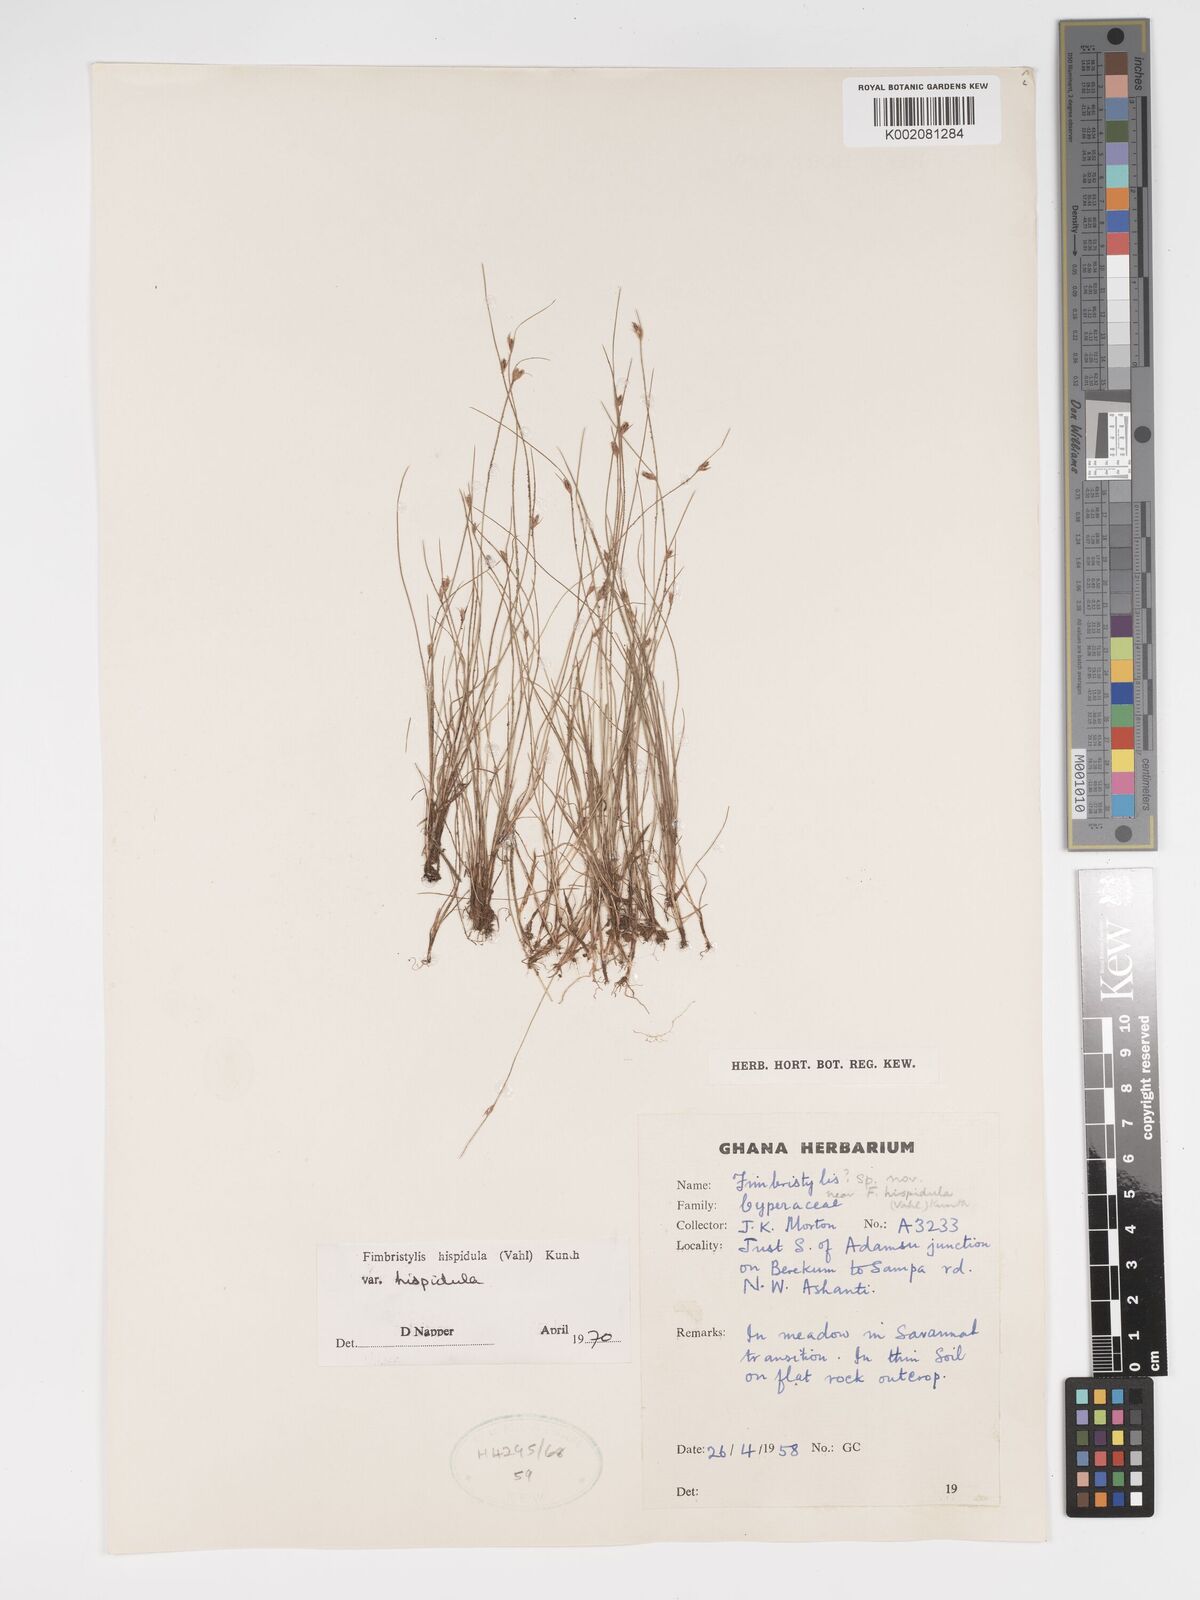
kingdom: Plantae
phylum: Tracheophyta
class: Liliopsida
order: Poales
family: Cyperaceae
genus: Bulbostylis
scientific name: Bulbostylis
